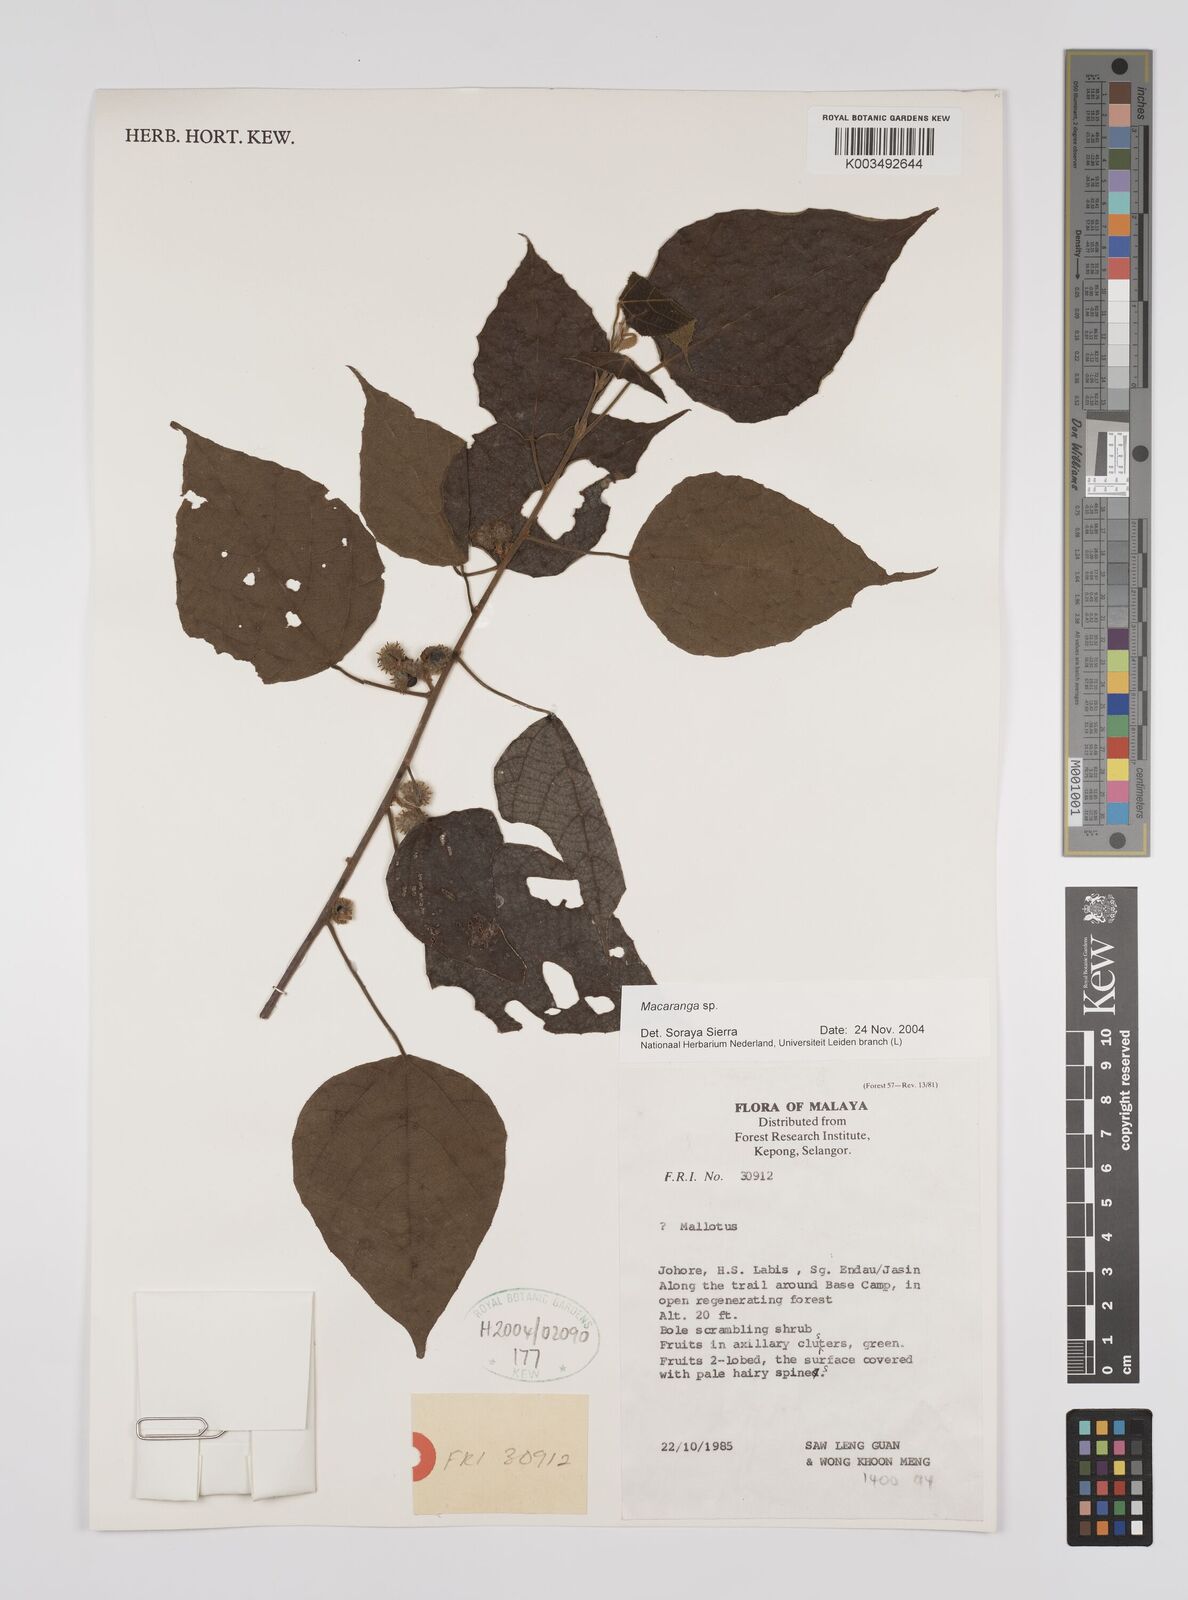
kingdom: Plantae
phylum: Tracheophyta
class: Magnoliopsida
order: Malpighiales
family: Euphorbiaceae
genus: Macaranga
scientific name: Macaranga
